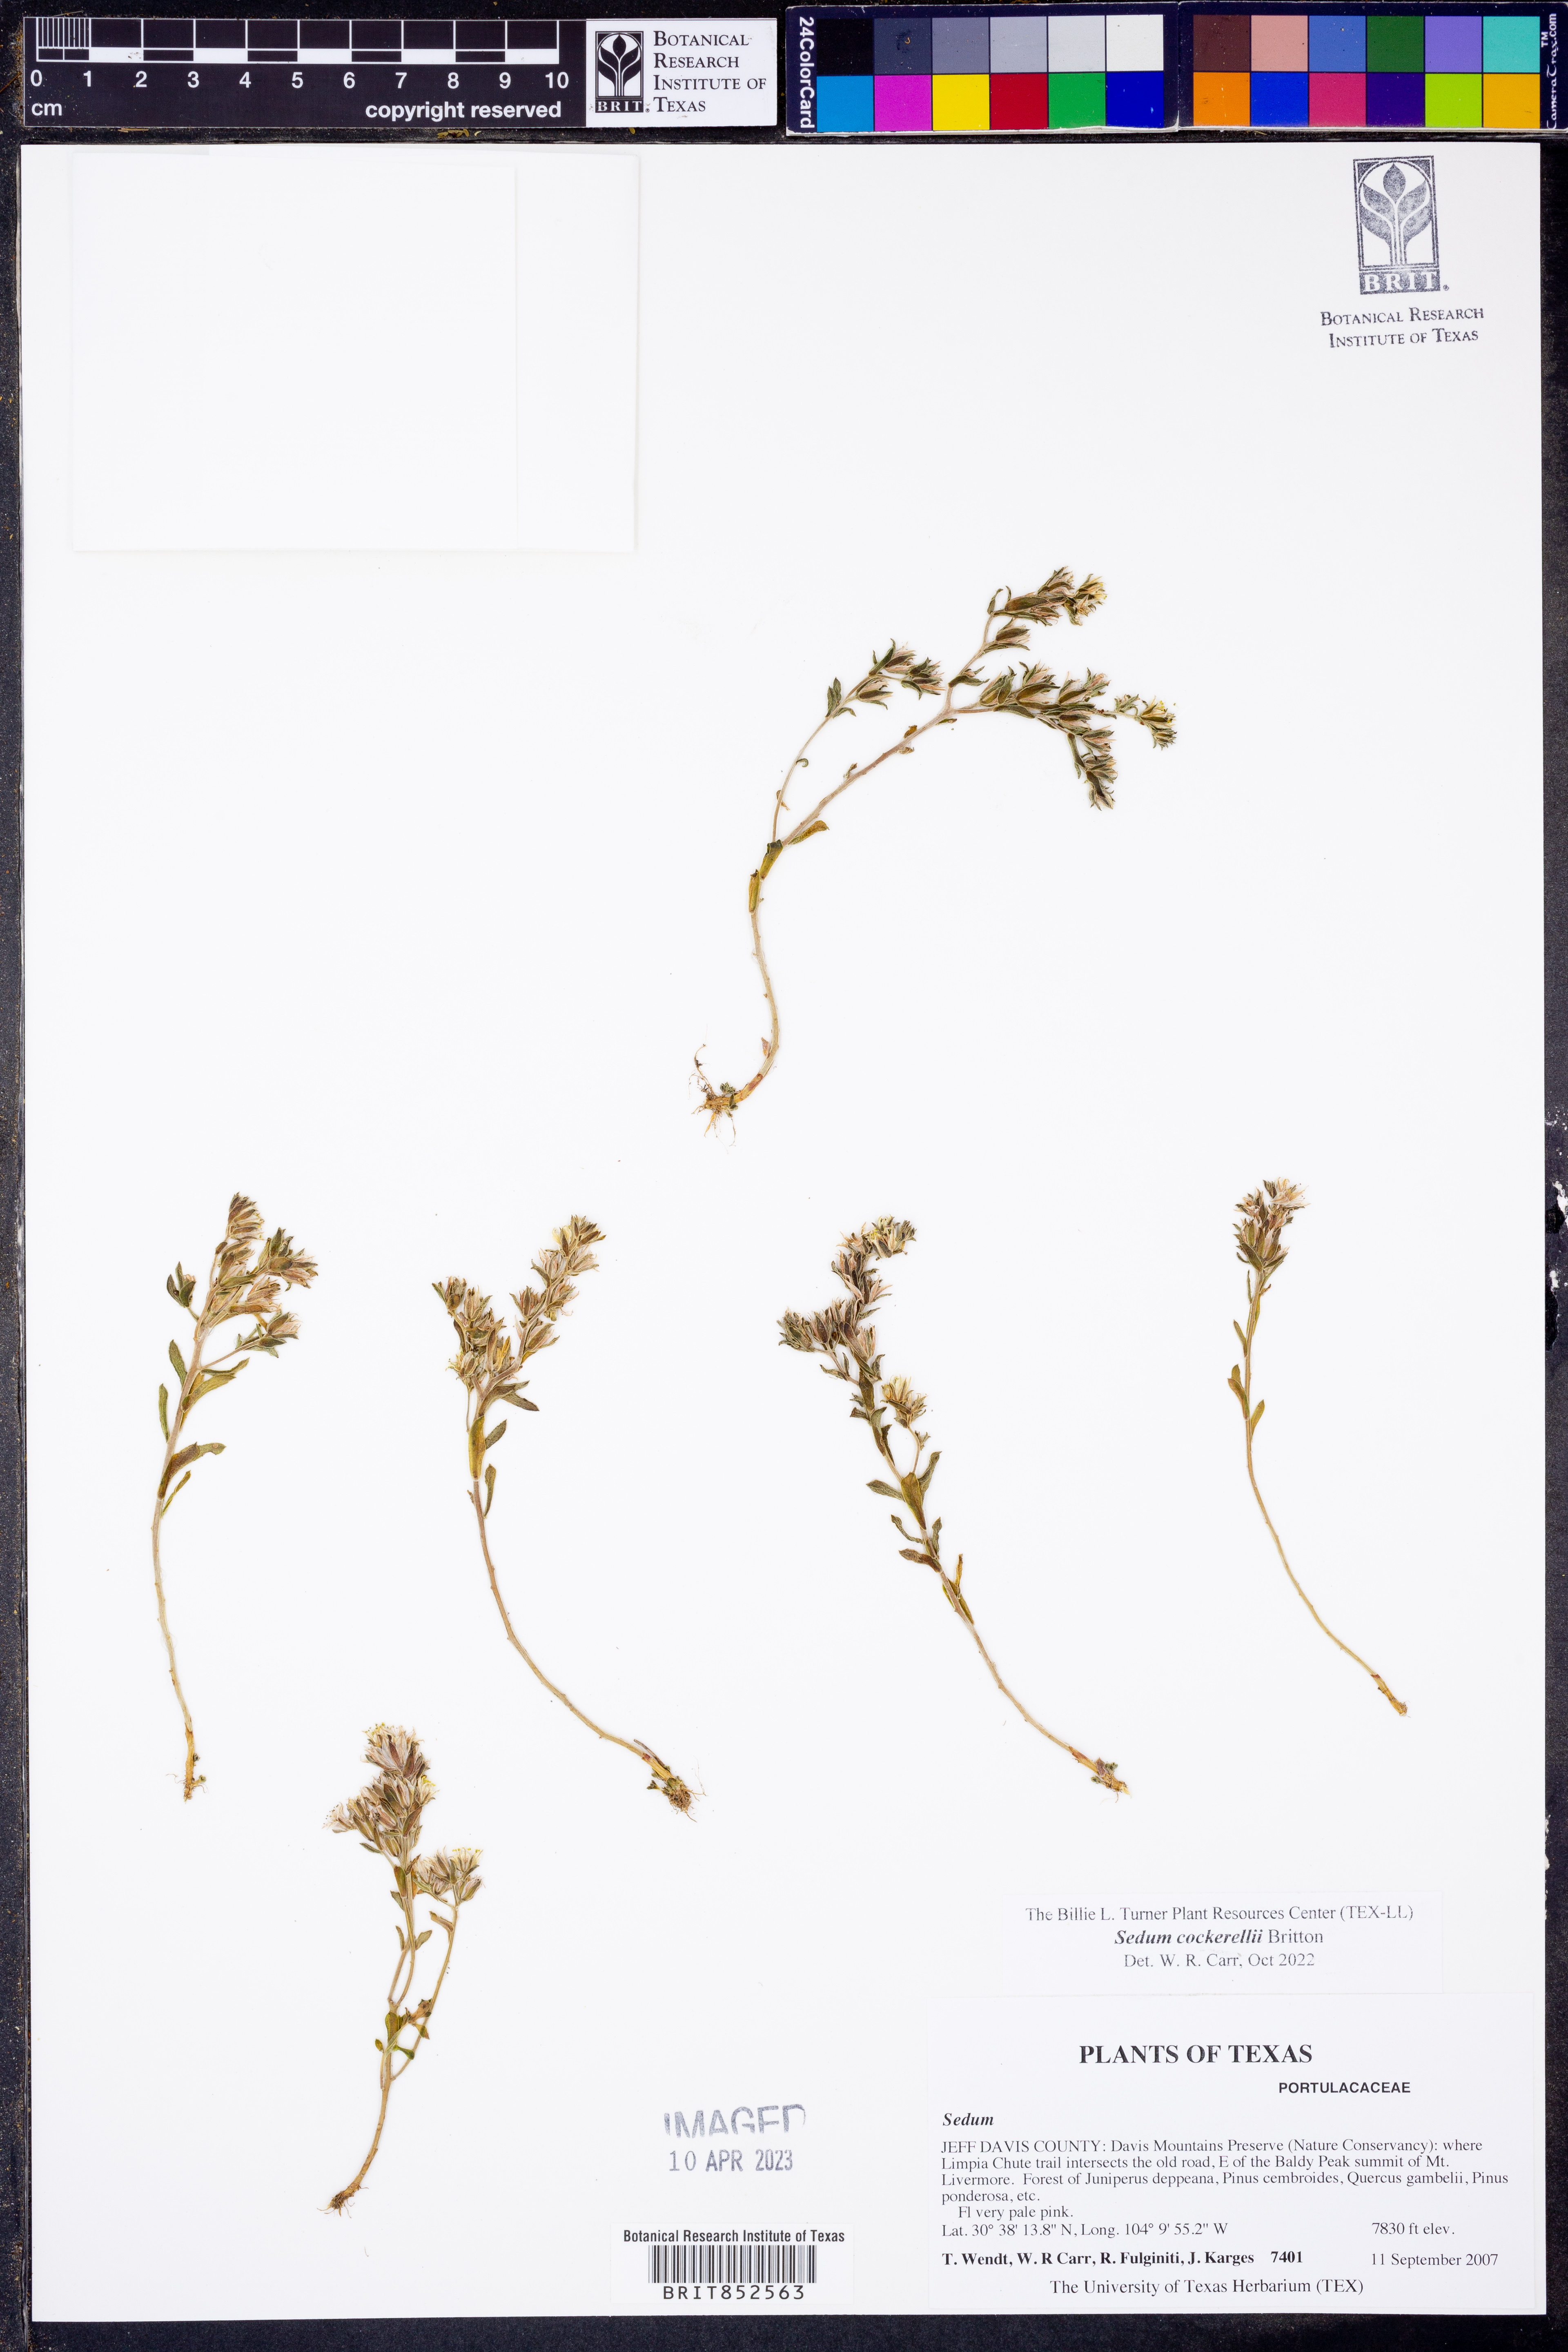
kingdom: Plantae
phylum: Tracheophyta
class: Magnoliopsida
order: Saxifragales
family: Crassulaceae
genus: Sedum
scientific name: Sedum cockerellii
